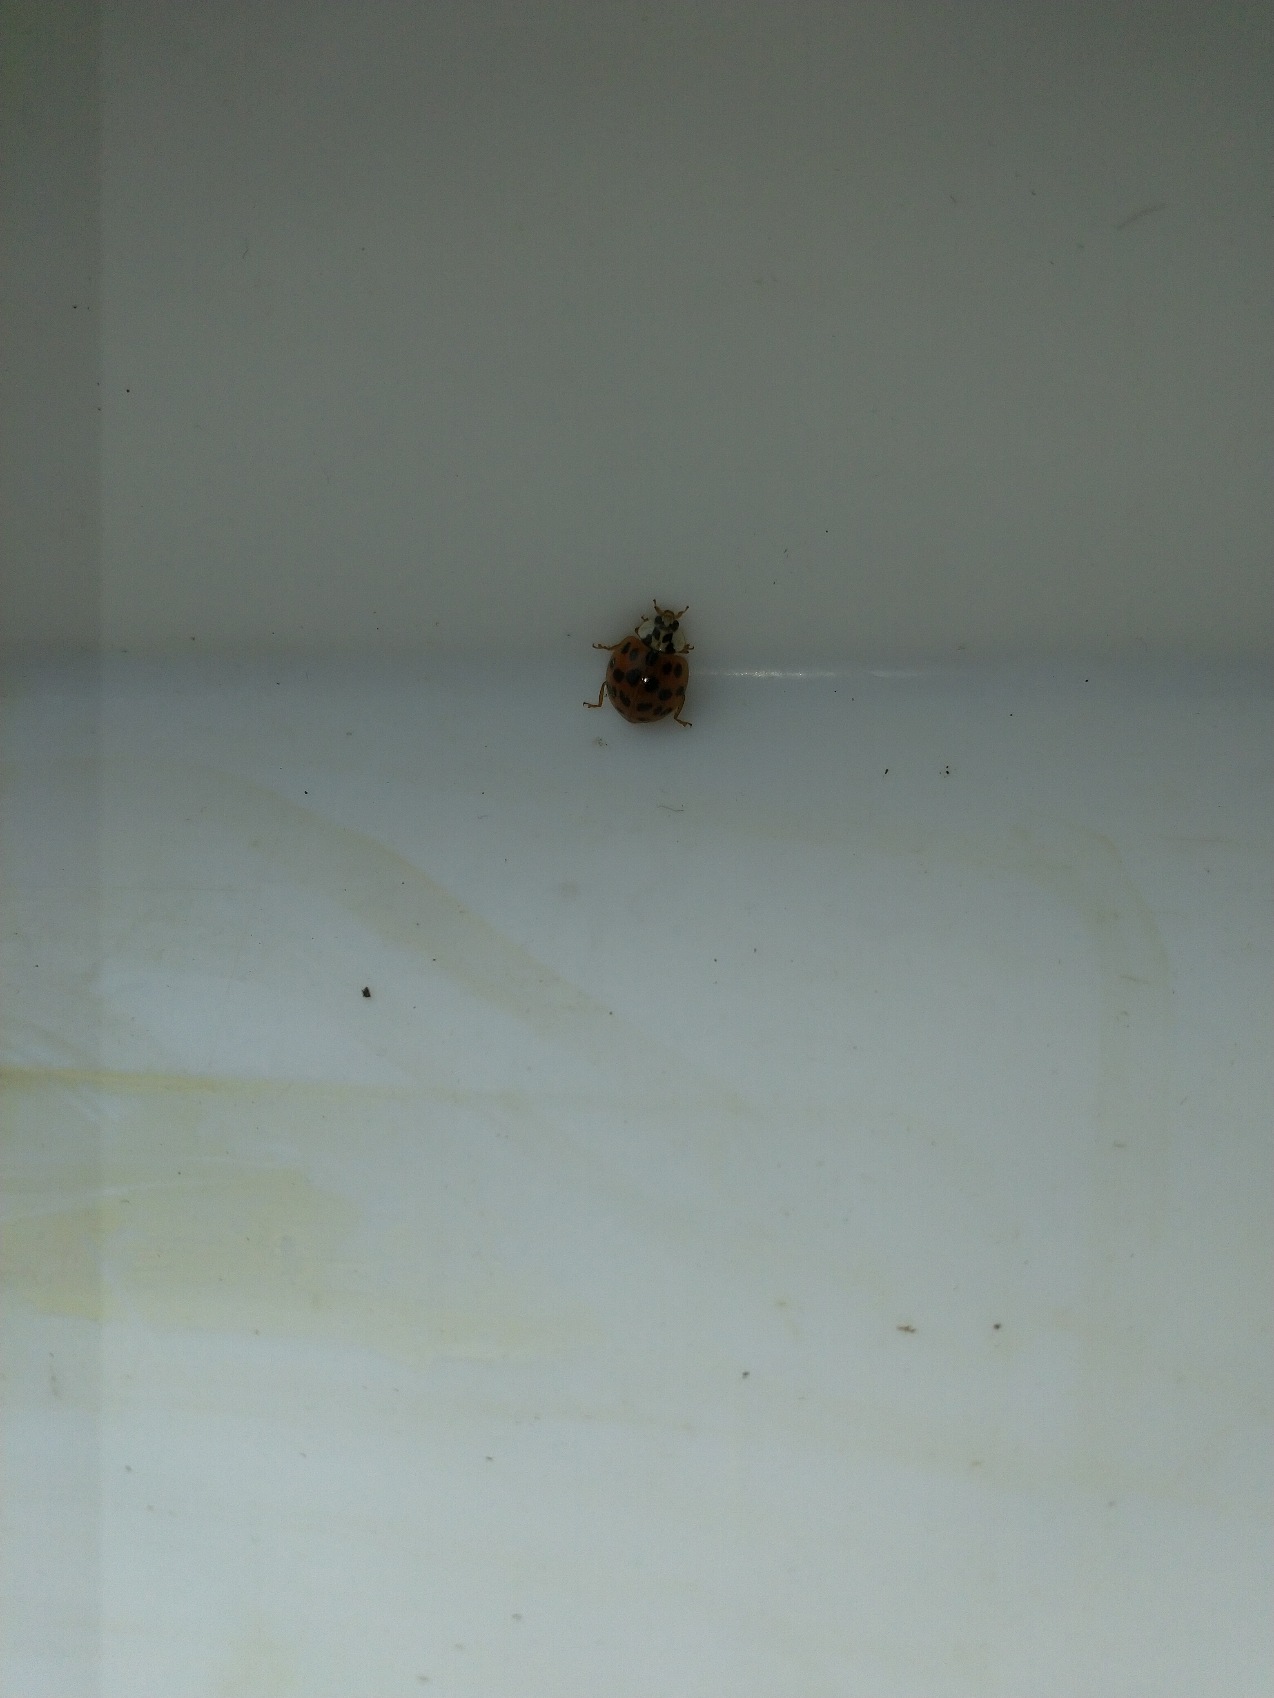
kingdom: Animalia
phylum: Arthropoda
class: Insecta
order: Coleoptera
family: Coccinellidae
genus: Harmonia
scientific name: Harmonia axyridis
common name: Harlekinmariehøne
